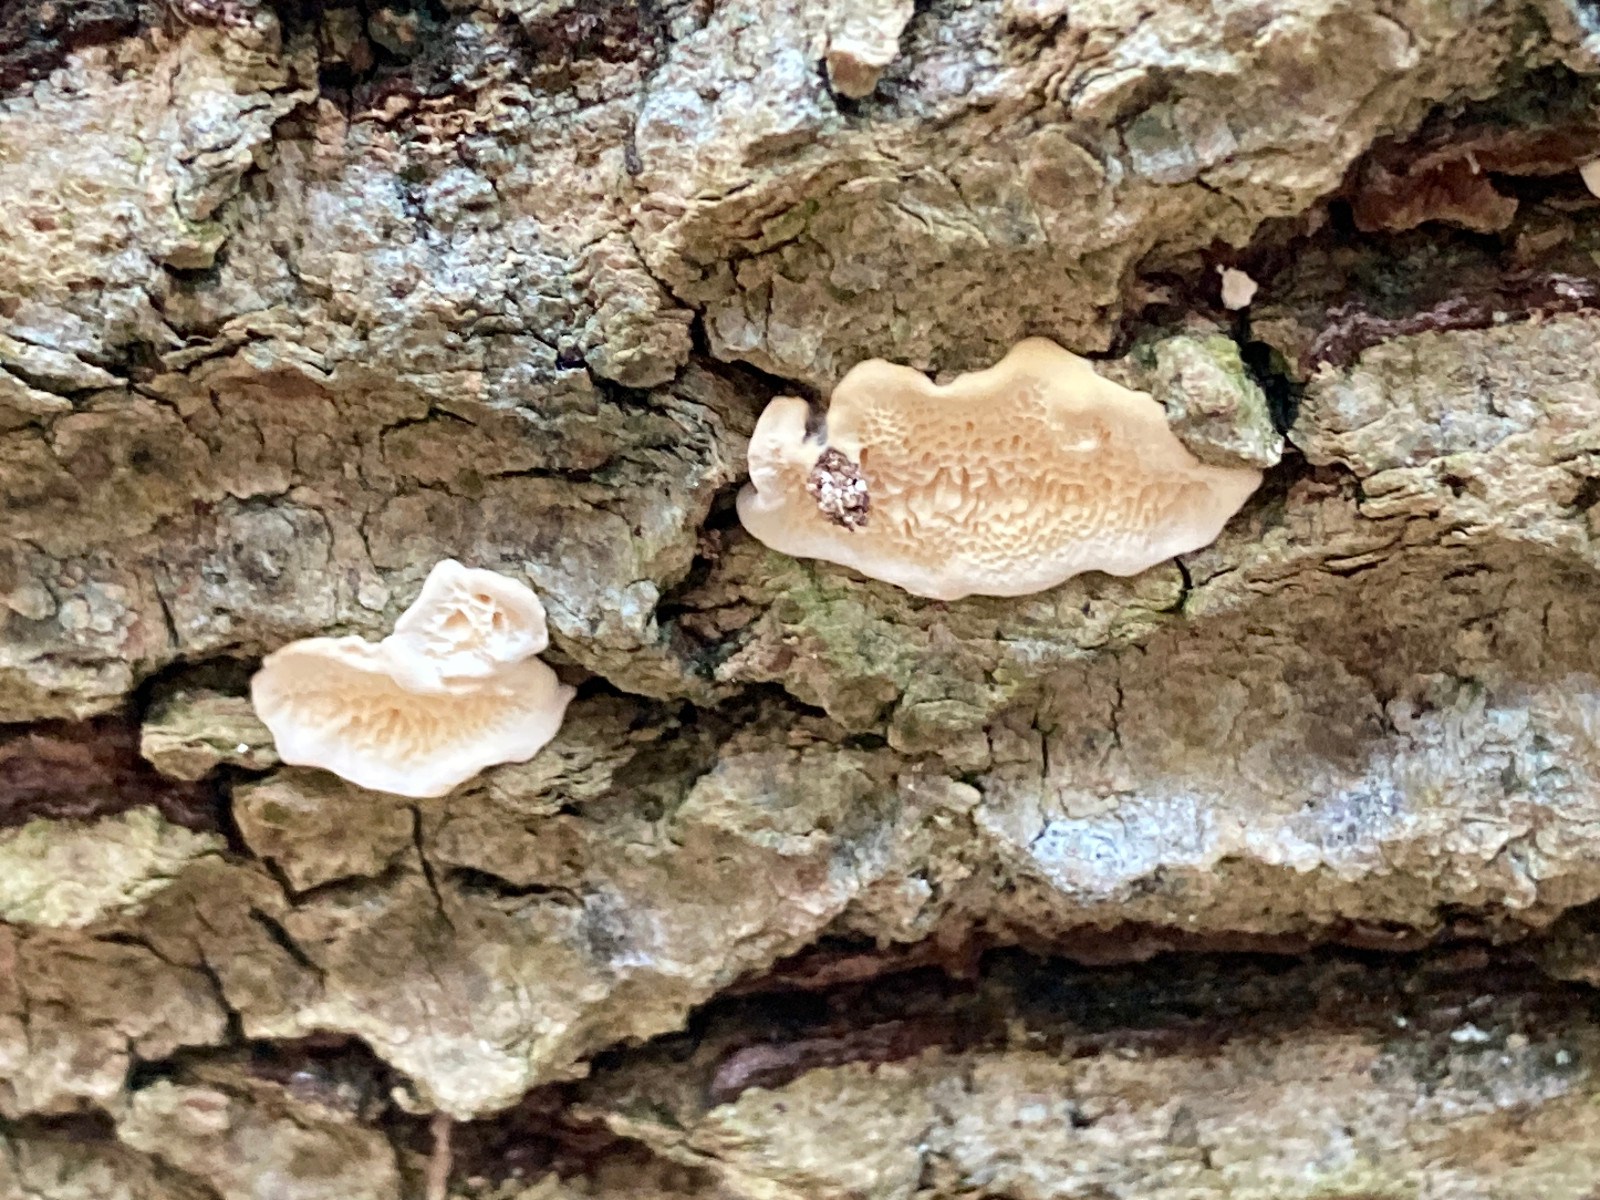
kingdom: Fungi
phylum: Basidiomycota
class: Agaricomycetes
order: Polyporales
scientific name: Polyporales
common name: poresvampordenen
